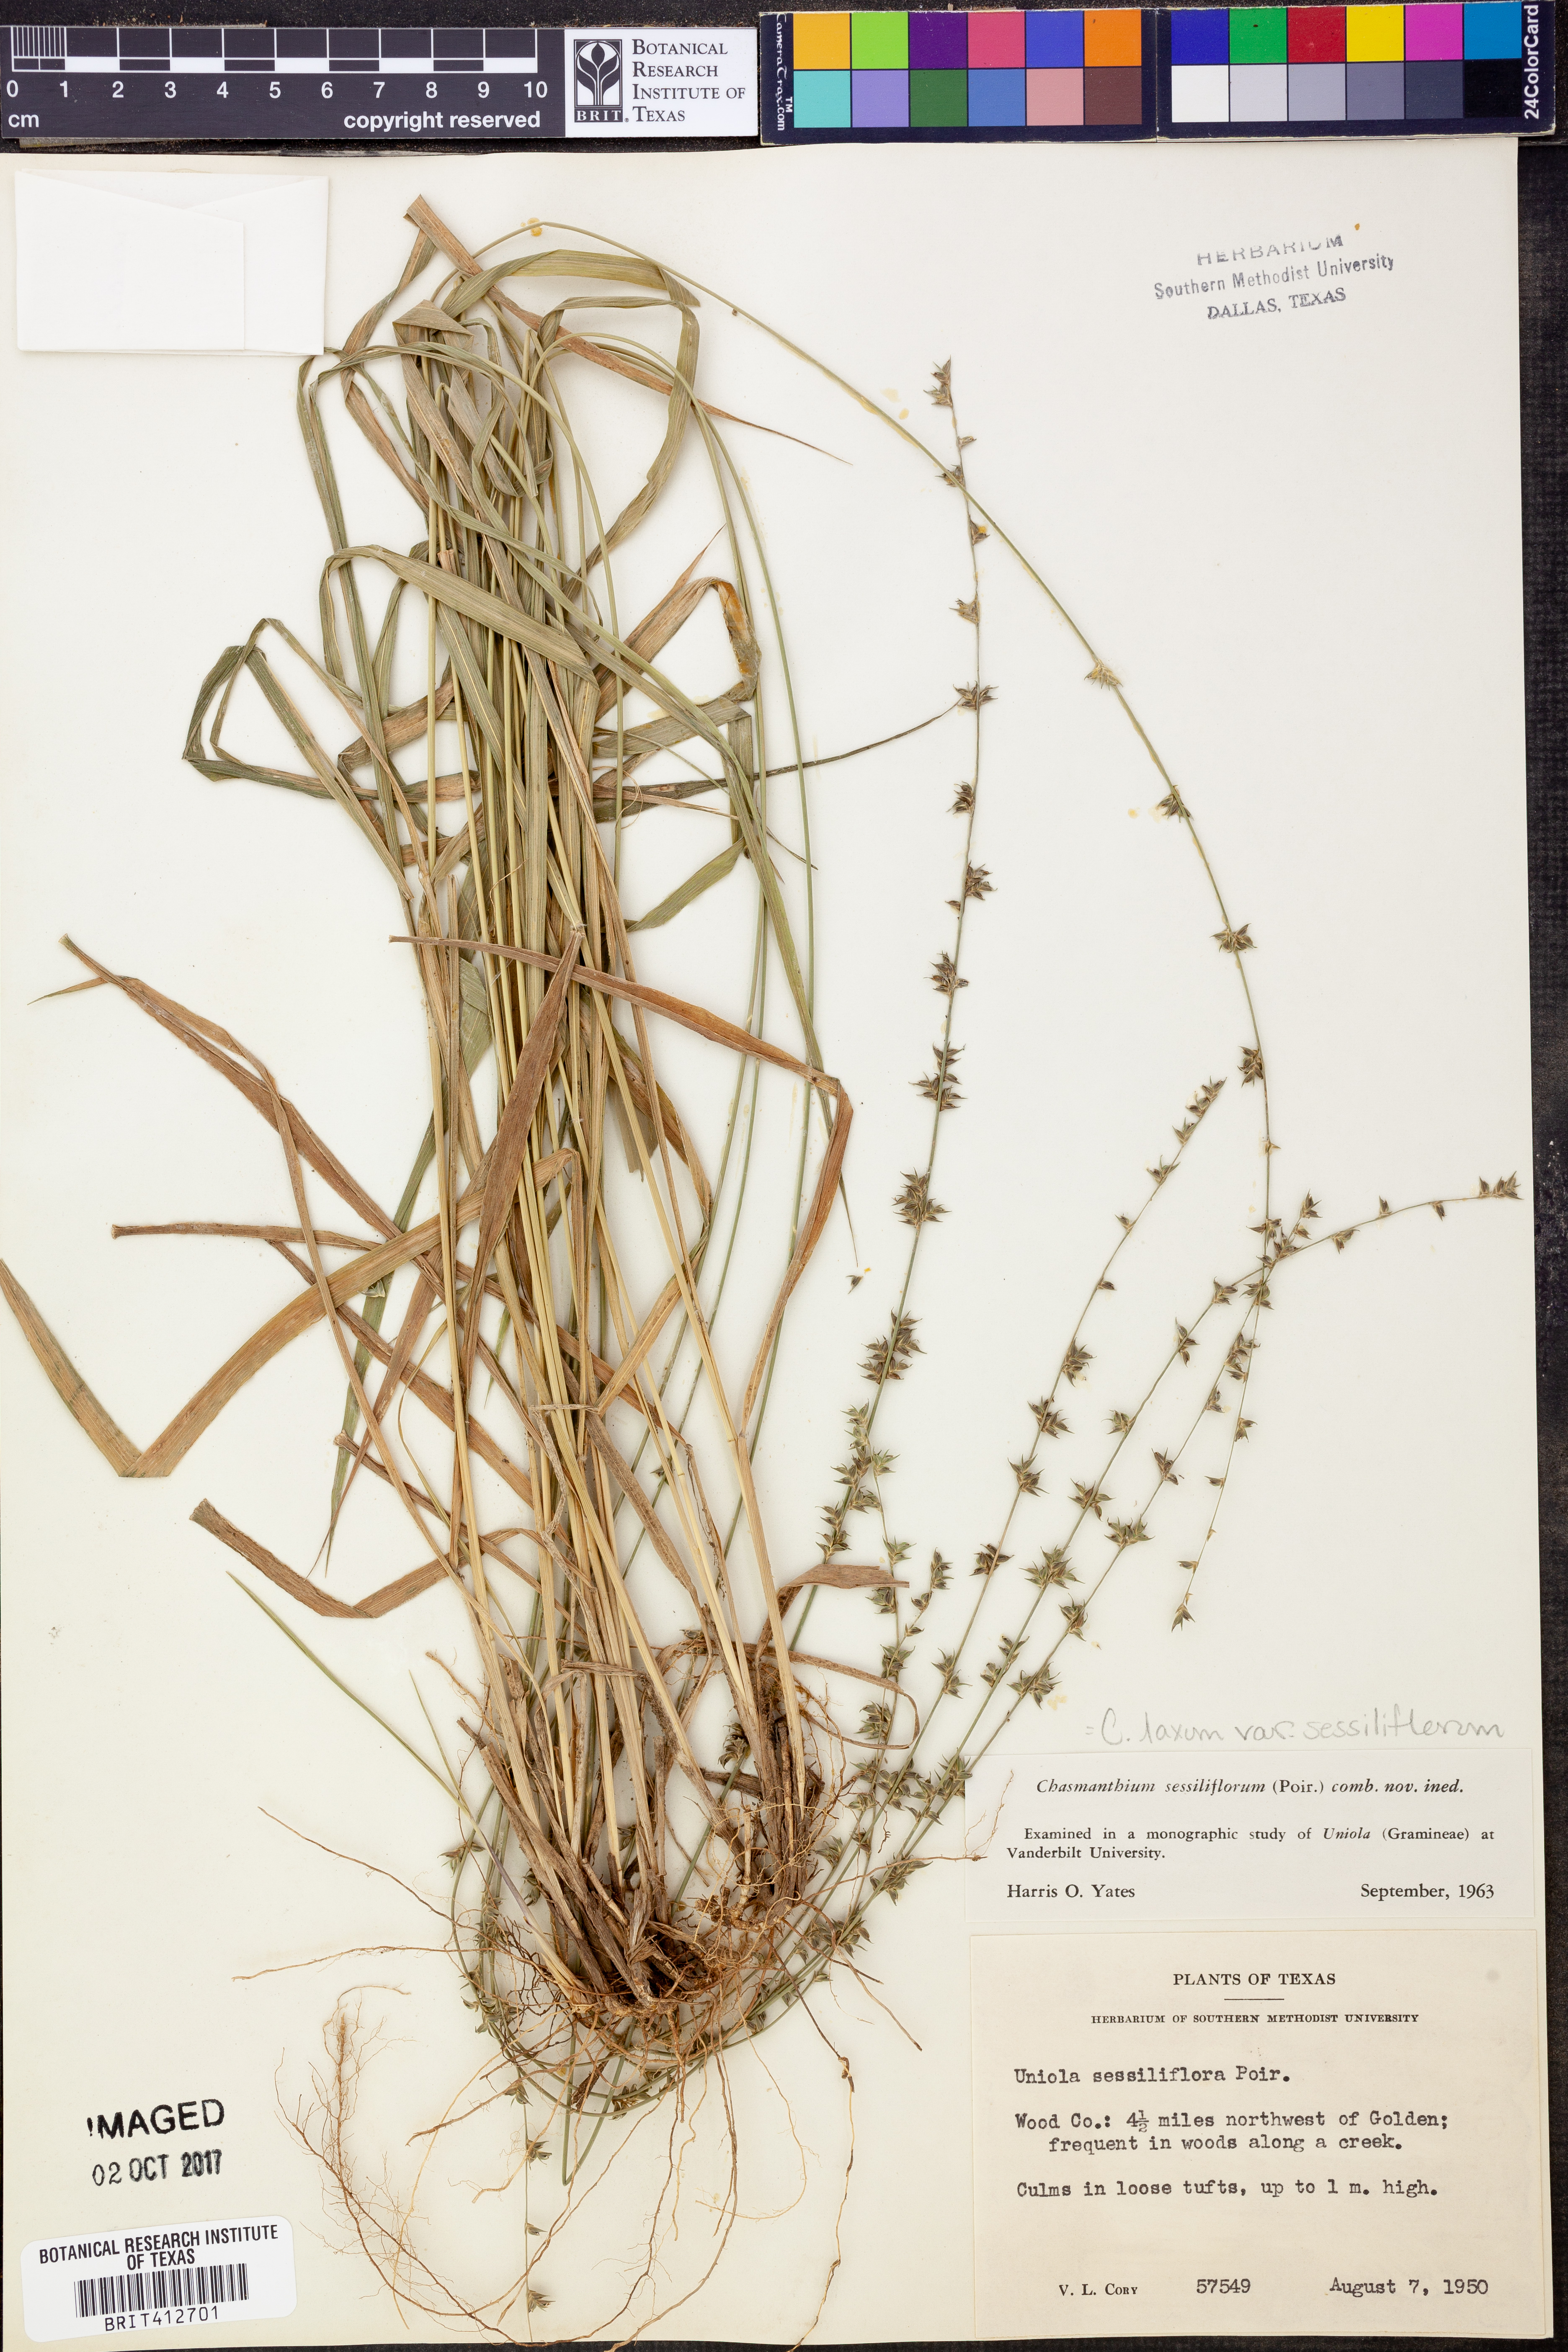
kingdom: Plantae
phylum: Tracheophyta
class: Liliopsida
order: Poales
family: Poaceae
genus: Chasmanthium
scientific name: Chasmanthium laxum
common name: Slender chasmanthium
